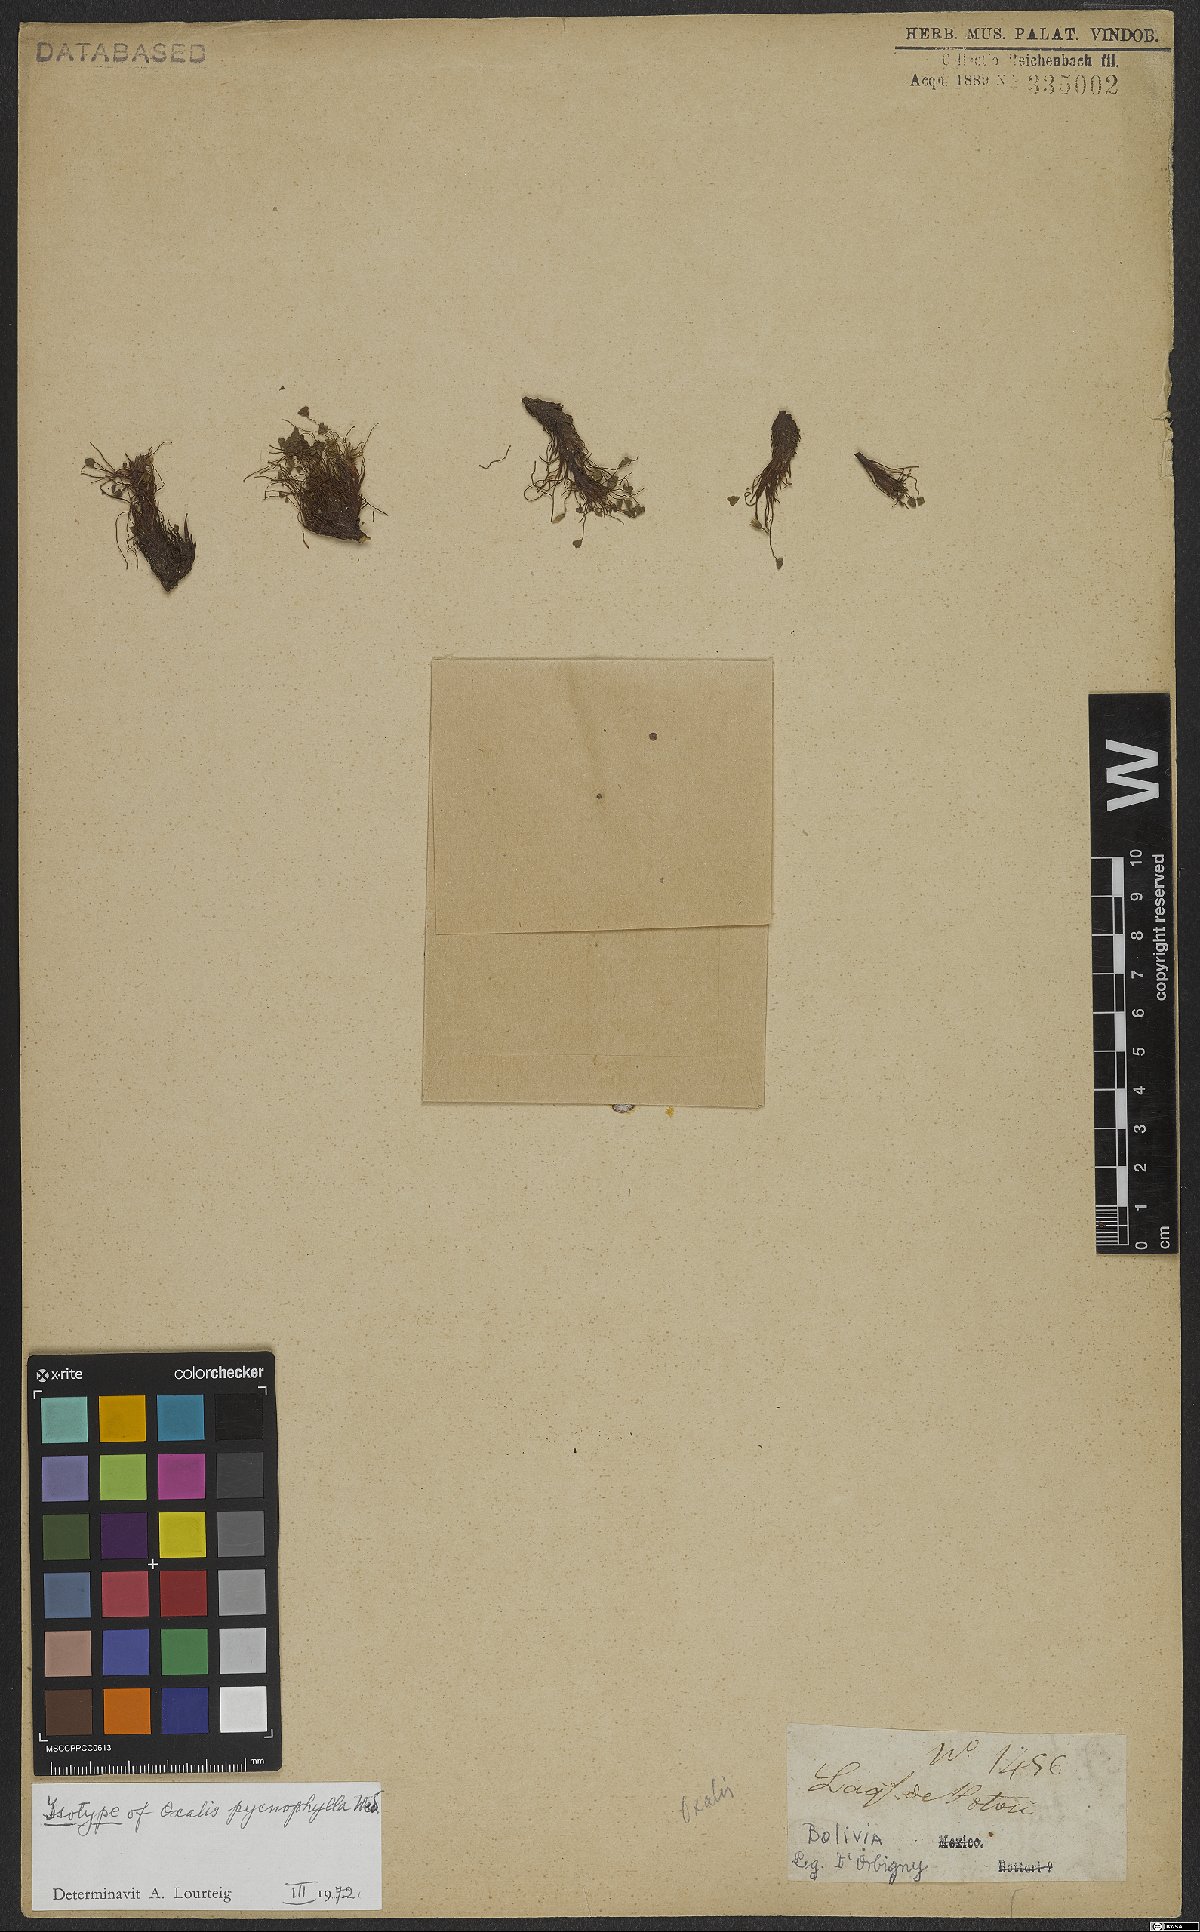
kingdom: Plantae
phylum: Tracheophyta
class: Magnoliopsida
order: Oxalidales
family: Oxalidaceae
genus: Oxalis
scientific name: Oxalis pycnophylla
